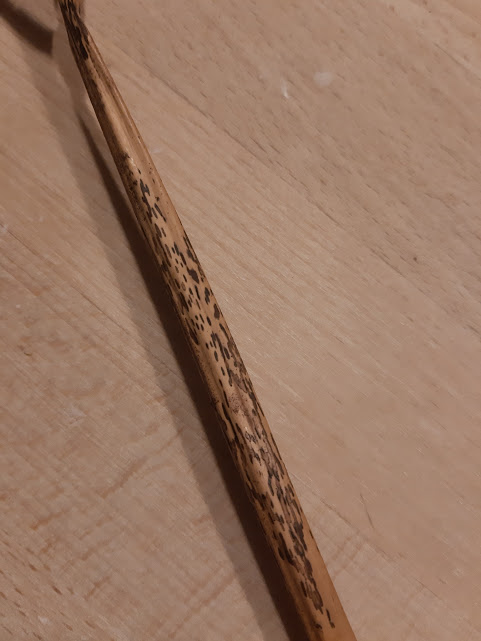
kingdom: Fungi
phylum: Ascomycota
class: Dothideomycetes
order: Pleosporales
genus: Rhopographus
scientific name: Rhopographus filicinus
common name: Bracken map
